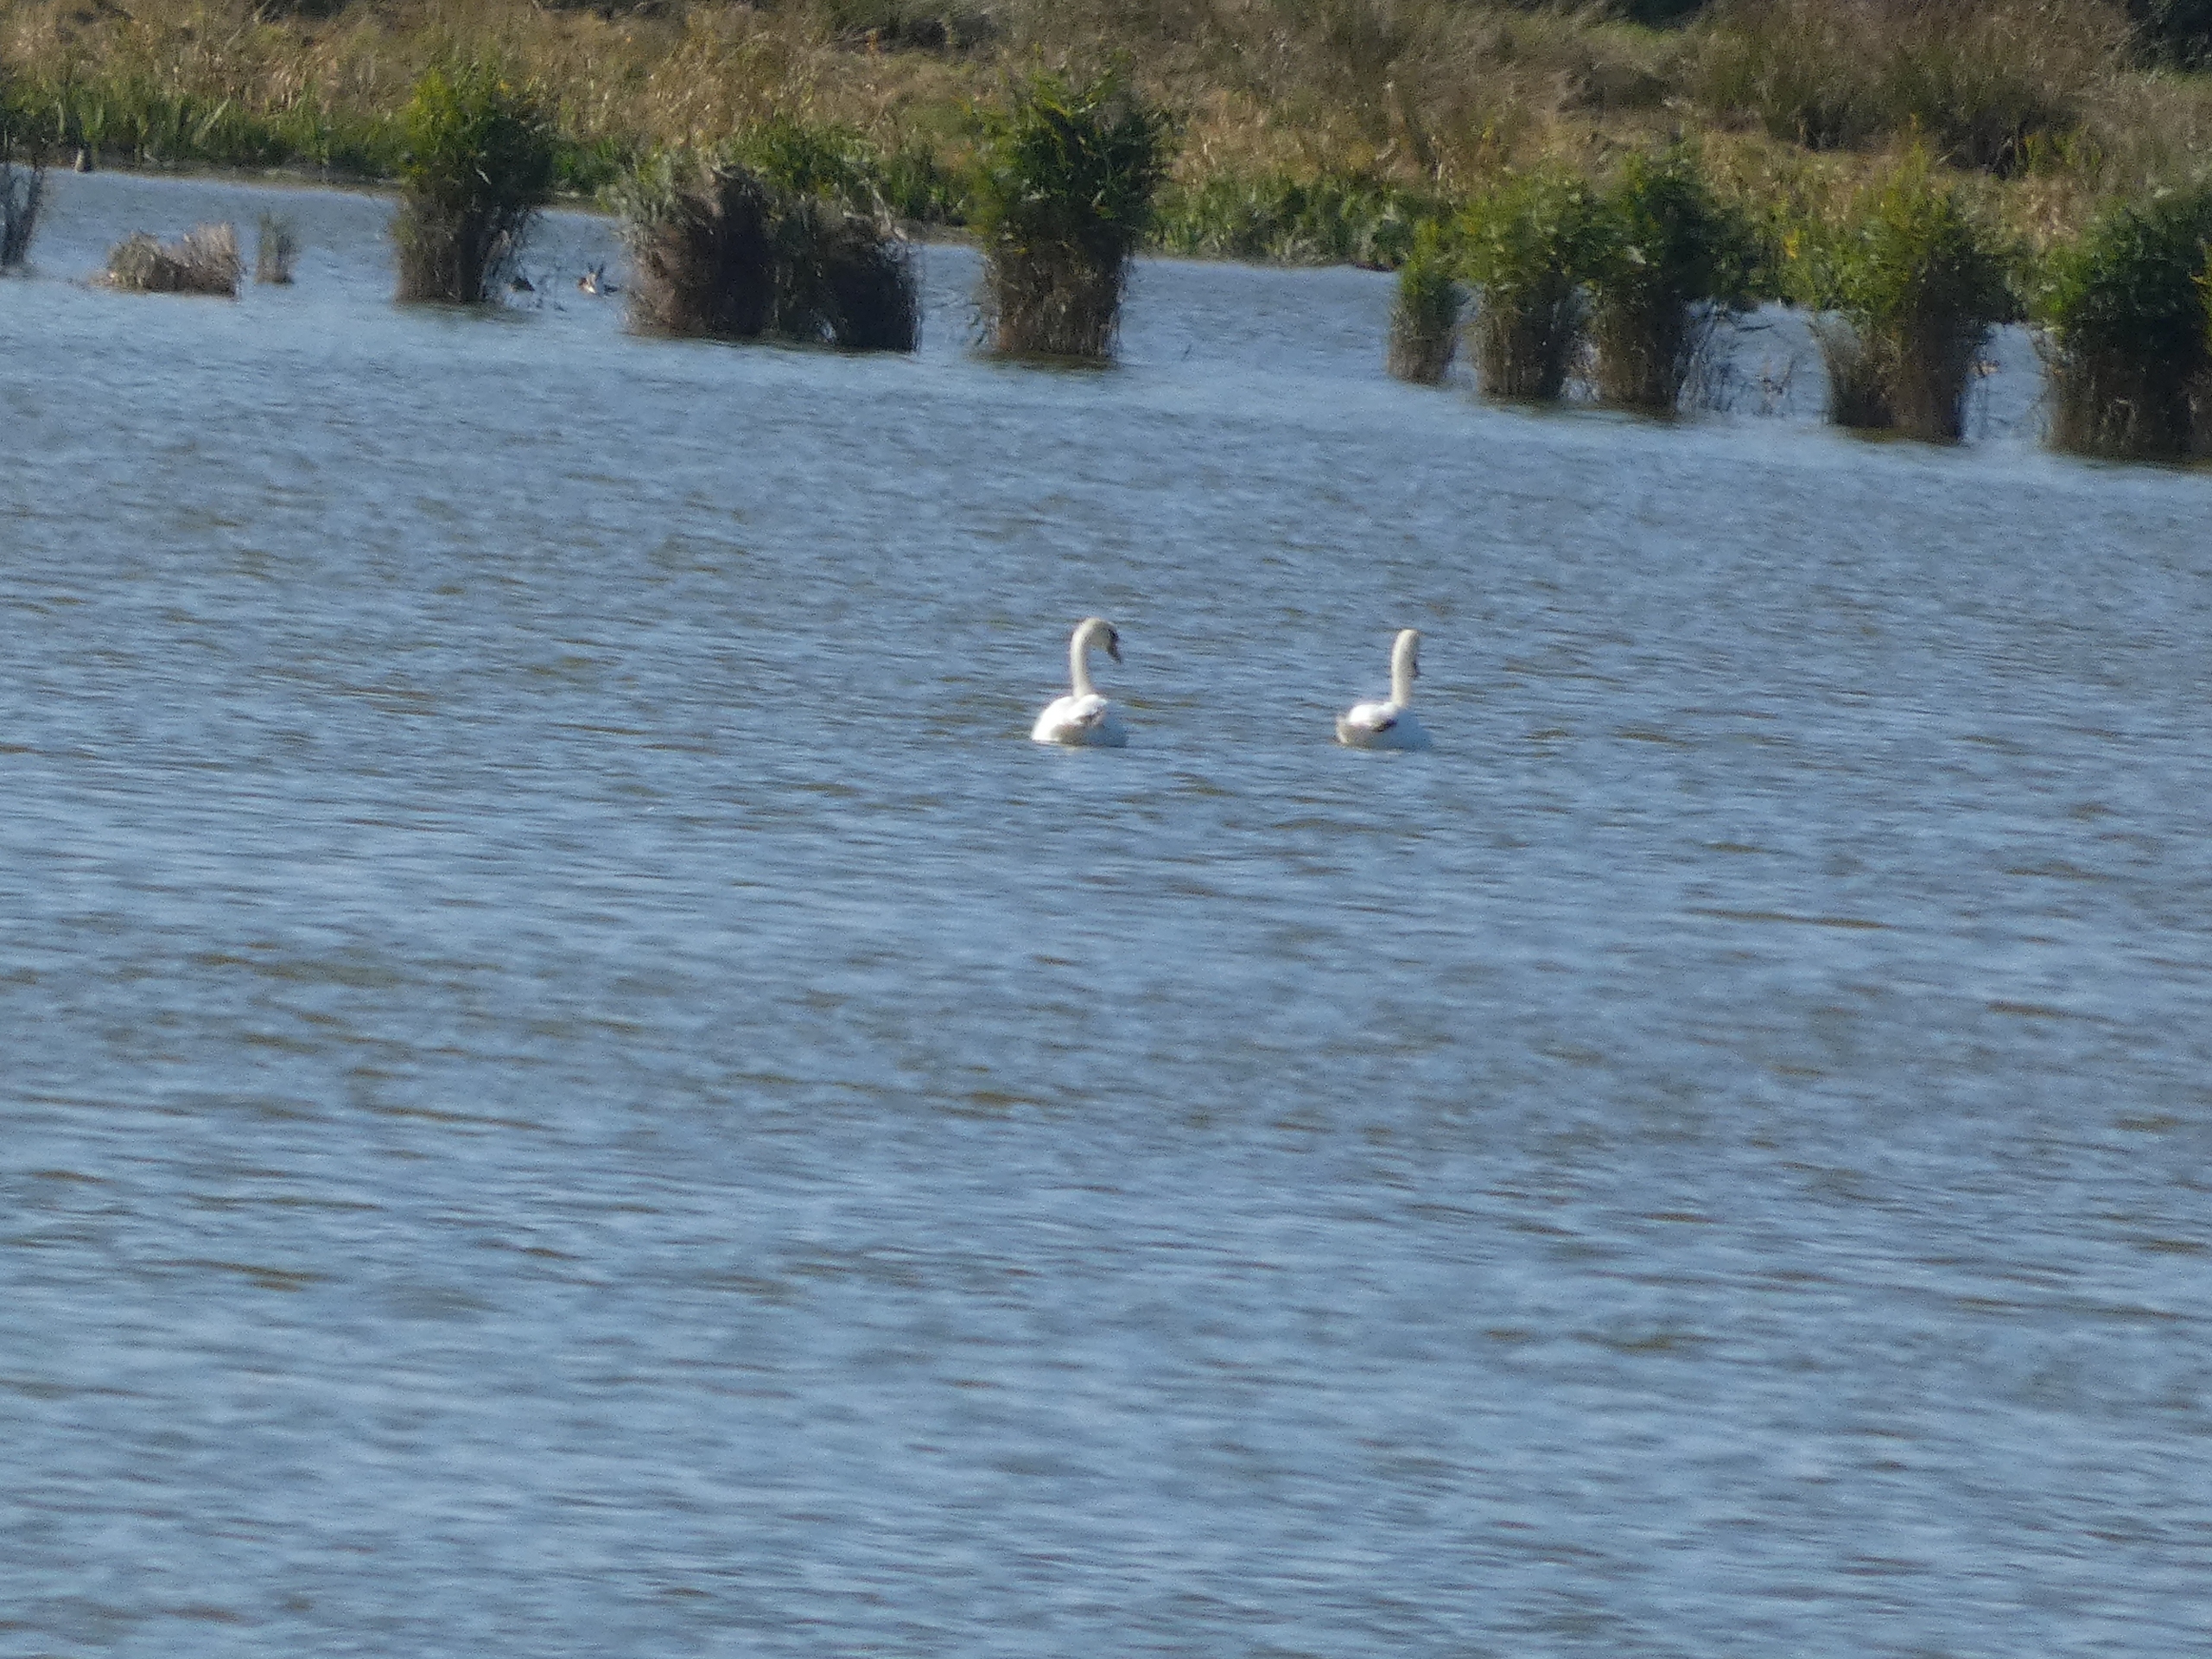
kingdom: Animalia
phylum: Chordata
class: Aves
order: Anseriformes
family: Anatidae
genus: Cygnus
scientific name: Cygnus olor
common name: Knopsvane
